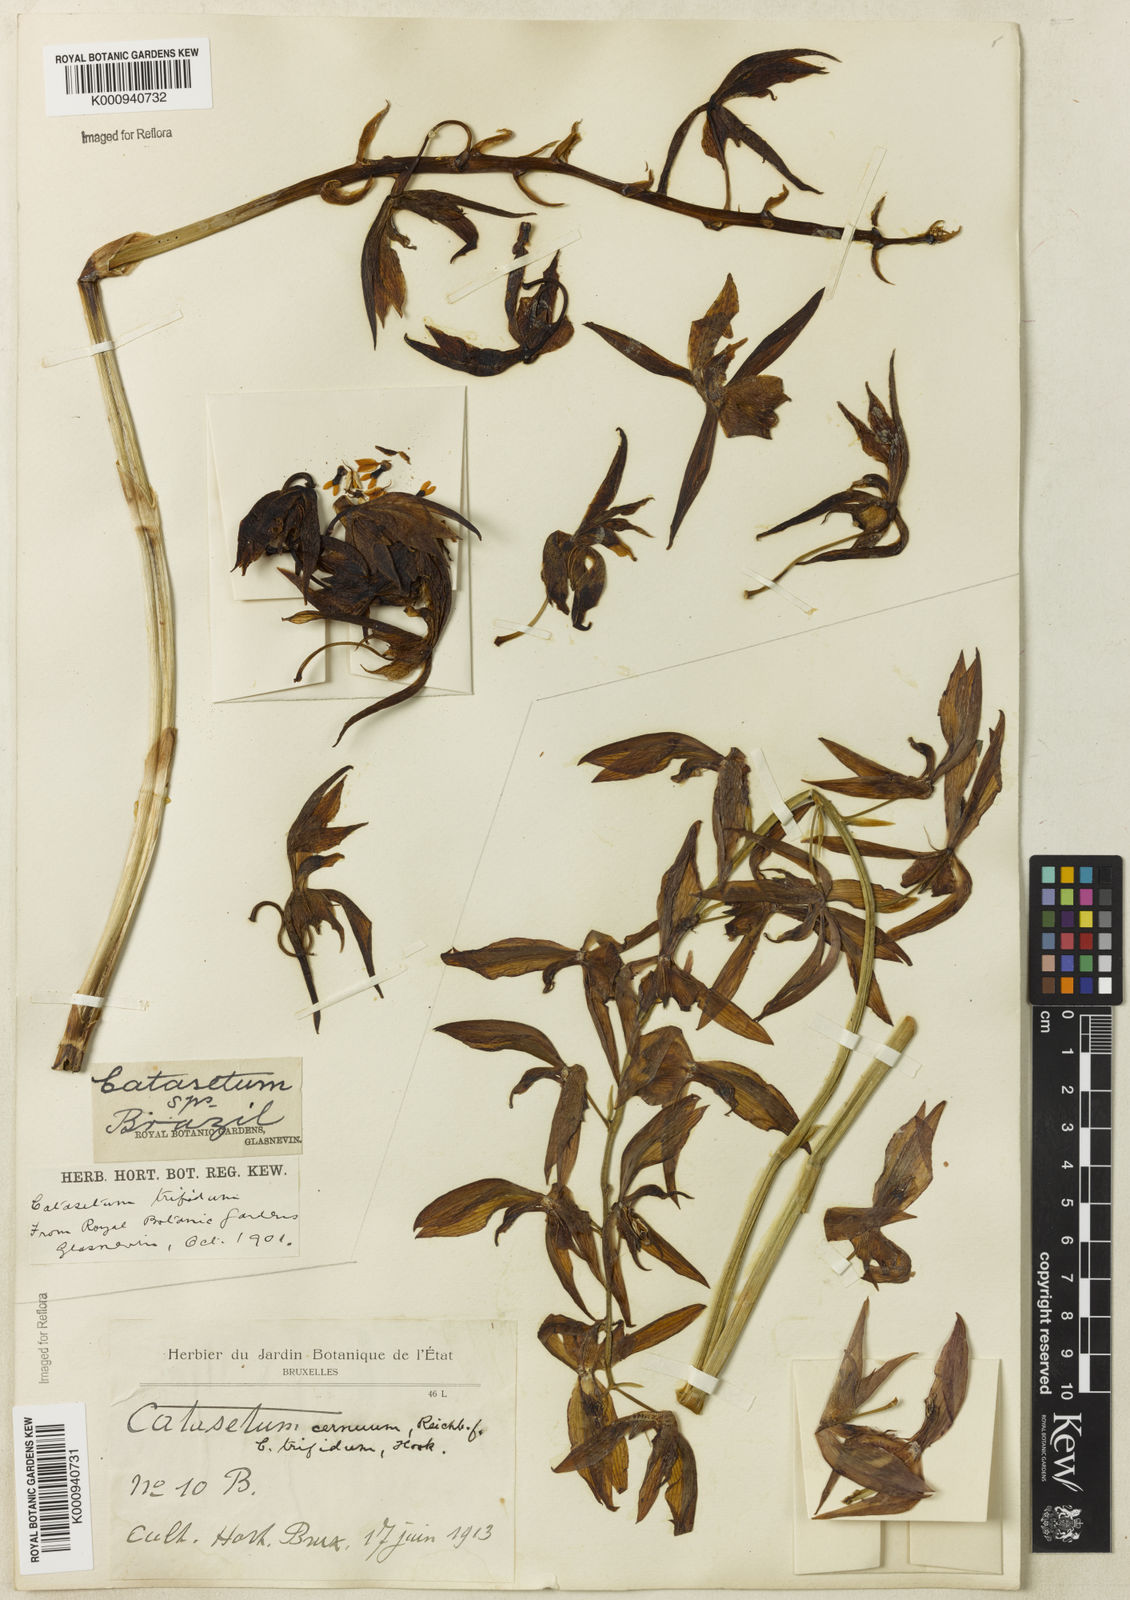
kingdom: Plantae
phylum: Tracheophyta
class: Liliopsida
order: Asparagales
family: Orchidaceae
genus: Catasetum
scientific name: Catasetum cernuum
